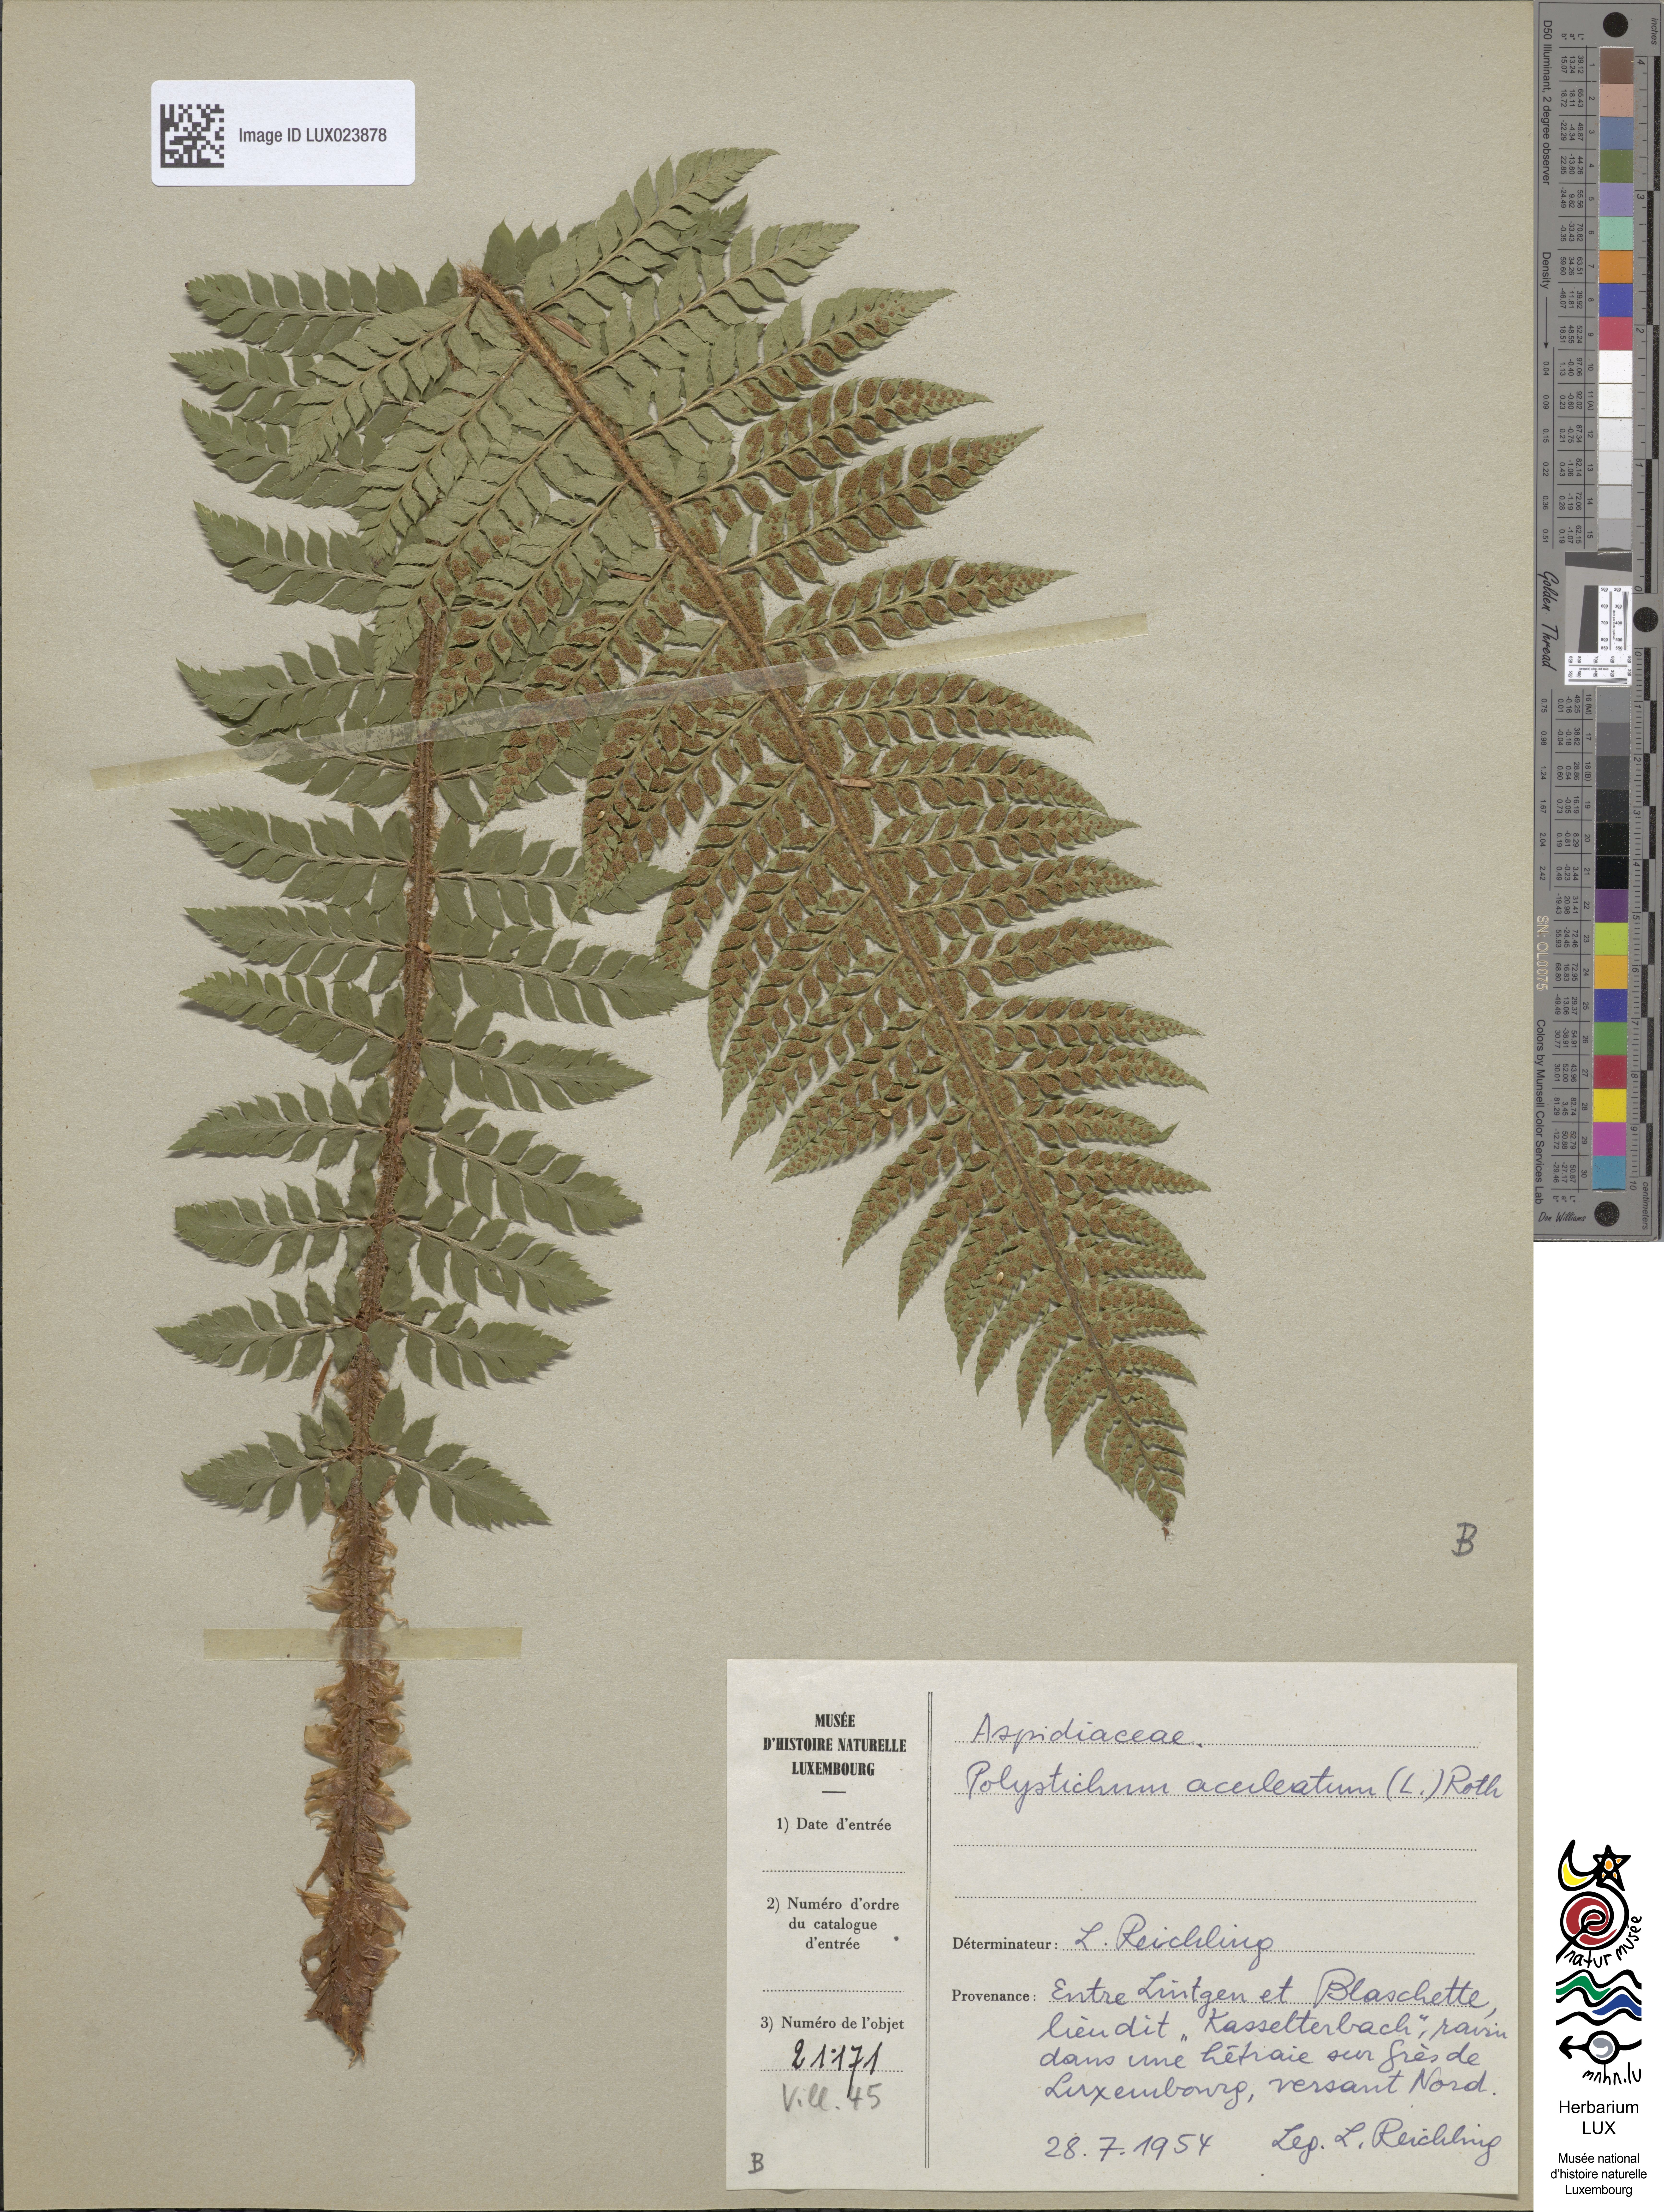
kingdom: Plantae
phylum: Tracheophyta
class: Polypodiopsida
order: Polypodiales
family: Dryopteridaceae
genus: Polystichum
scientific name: Polystichum aculeatum
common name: Hard shield-fern
